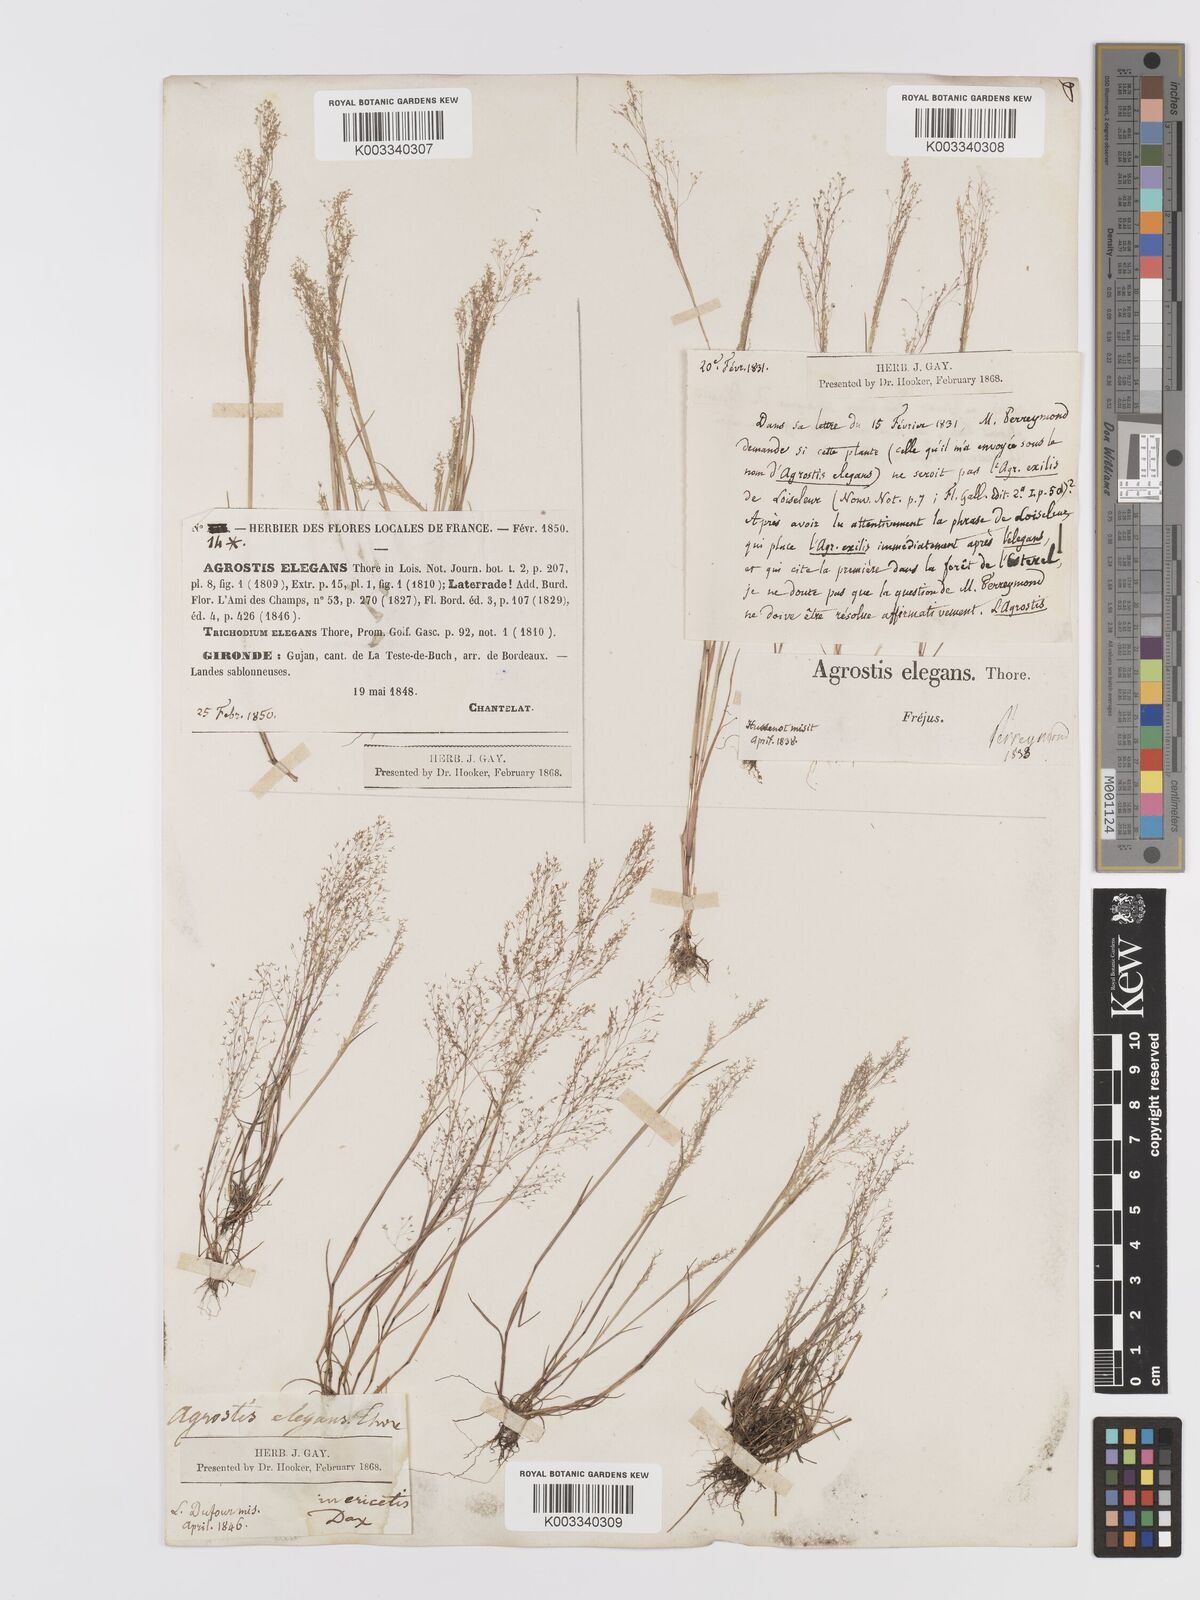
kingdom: Plantae
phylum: Tracheophyta
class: Liliopsida
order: Poales
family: Poaceae
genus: Agrostis
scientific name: Agrostis tenerrima
